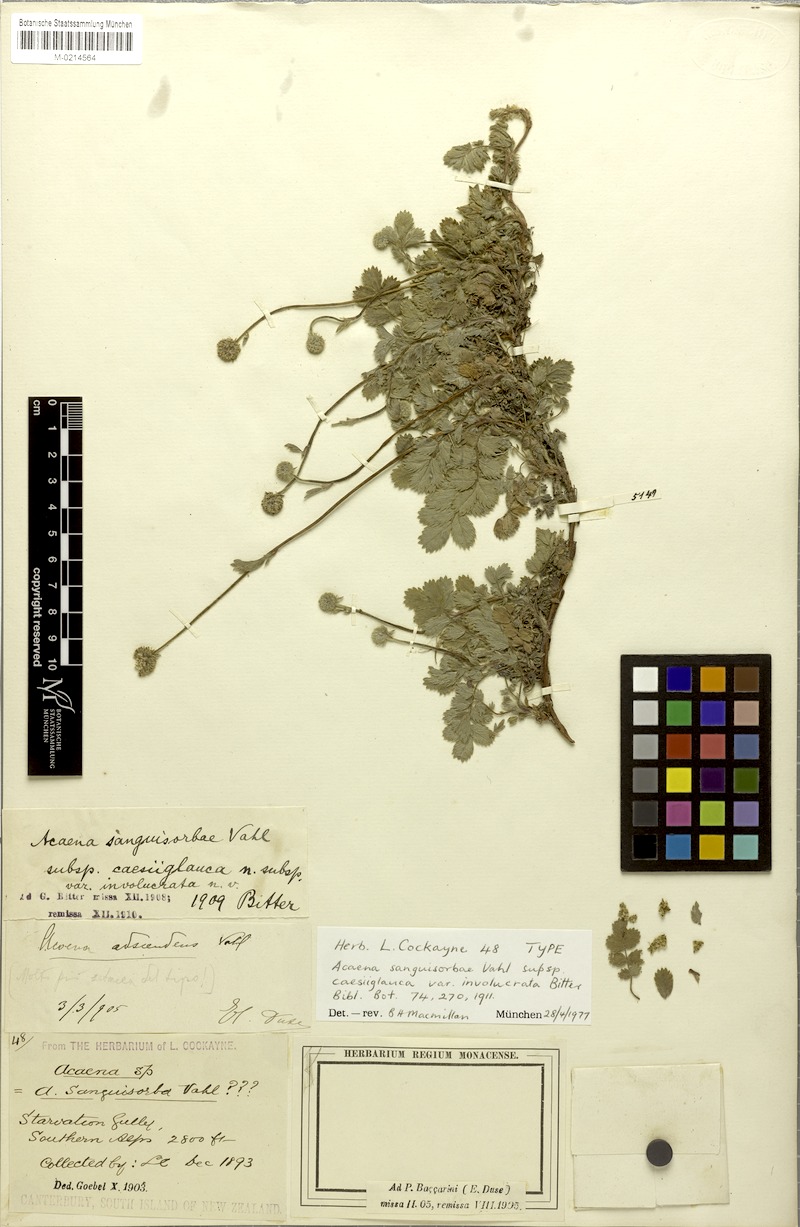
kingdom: Plantae
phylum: Tracheophyta
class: Magnoliopsida
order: Rosales
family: Rosaceae
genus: Acaena
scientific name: Acaena anserinifolia
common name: Bronze pirri-pirri-bur
